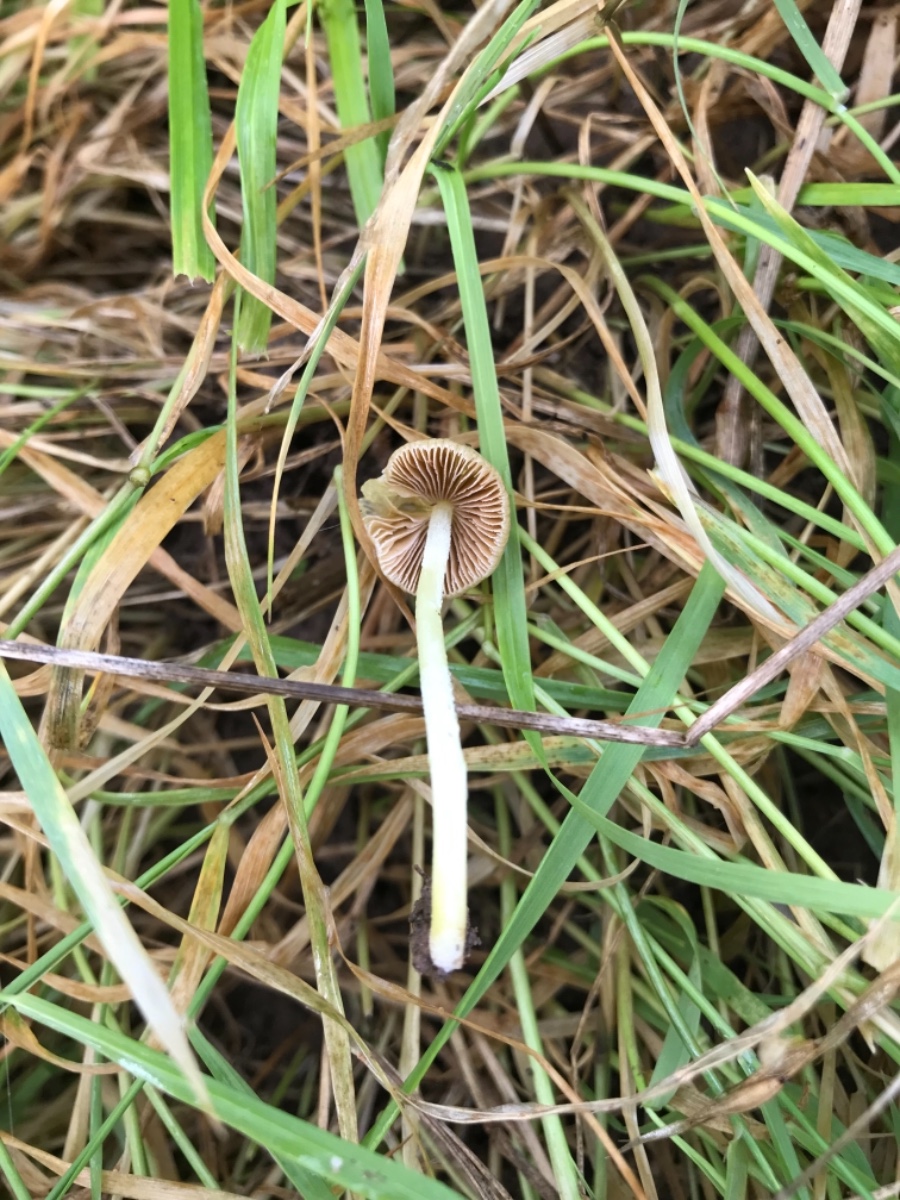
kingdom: Fungi
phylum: Basidiomycota
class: Agaricomycetes
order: Agaricales
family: Bolbitiaceae
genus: Bolbitius
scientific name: Bolbitius titubans
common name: almindelig gulhat
